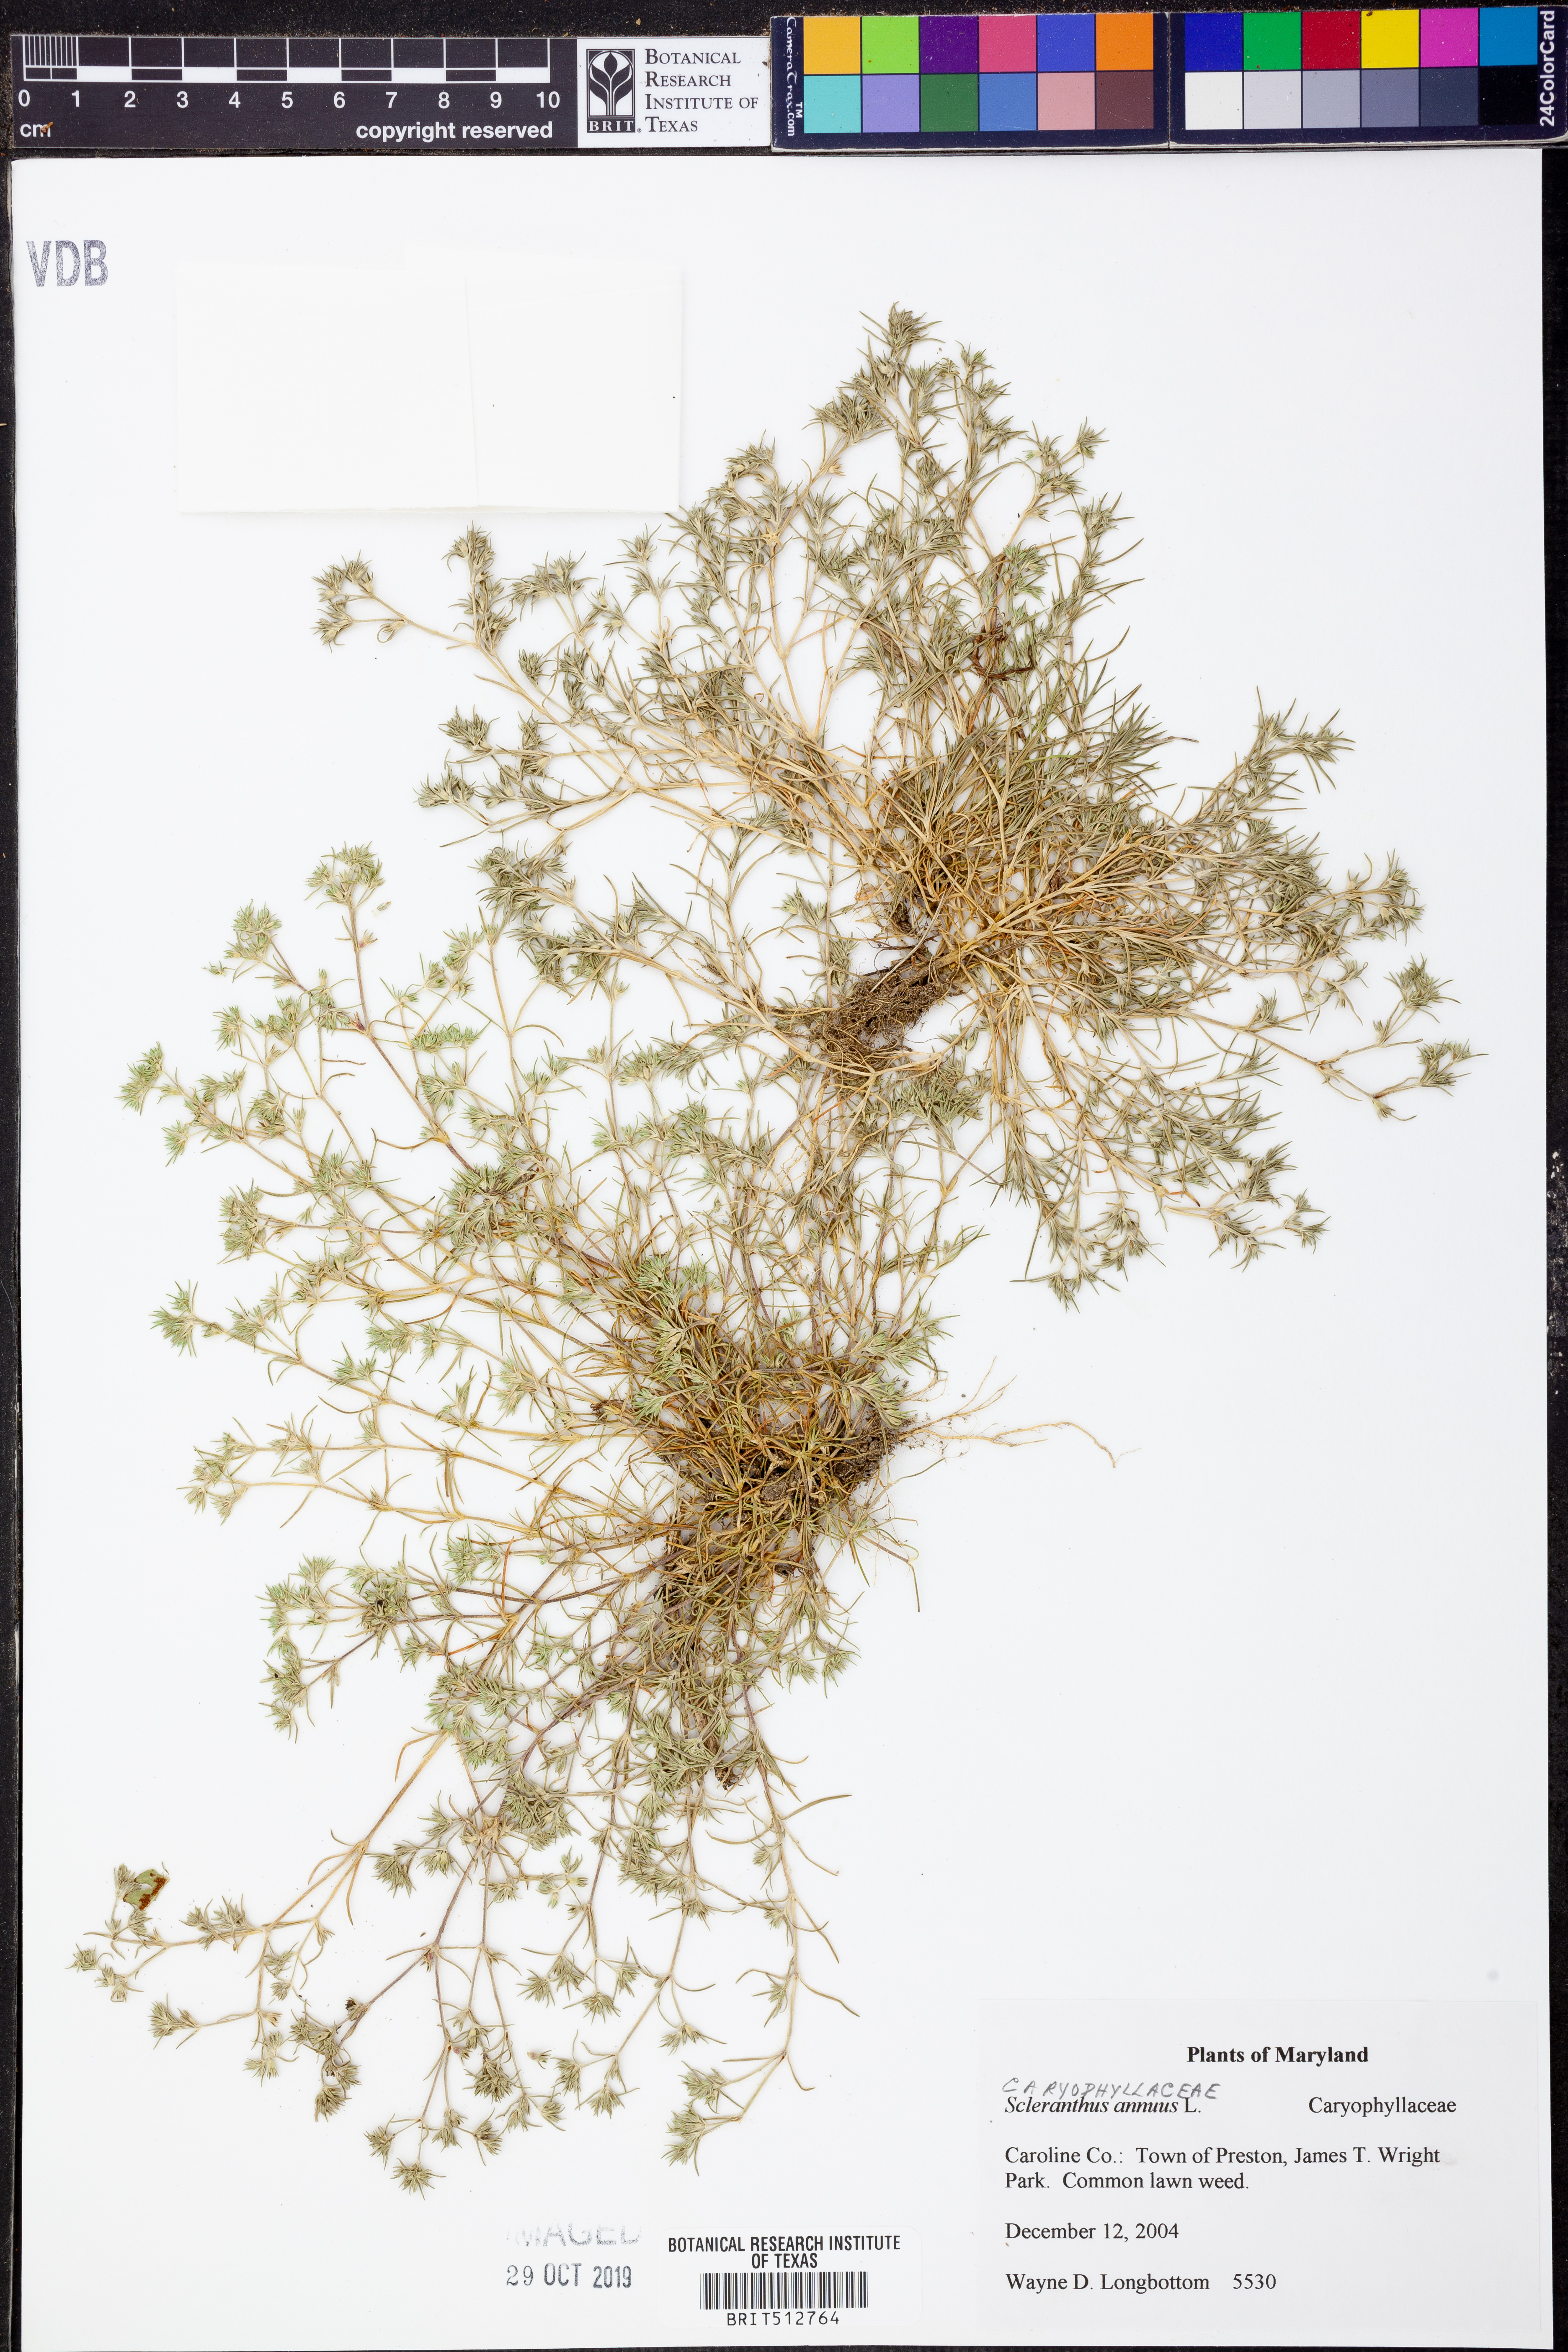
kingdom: Plantae
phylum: Tracheophyta
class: Magnoliopsida
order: Caryophyllales
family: Caryophyllaceae
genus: Scleranthus
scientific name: Scleranthus annuus
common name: Annual knawel
